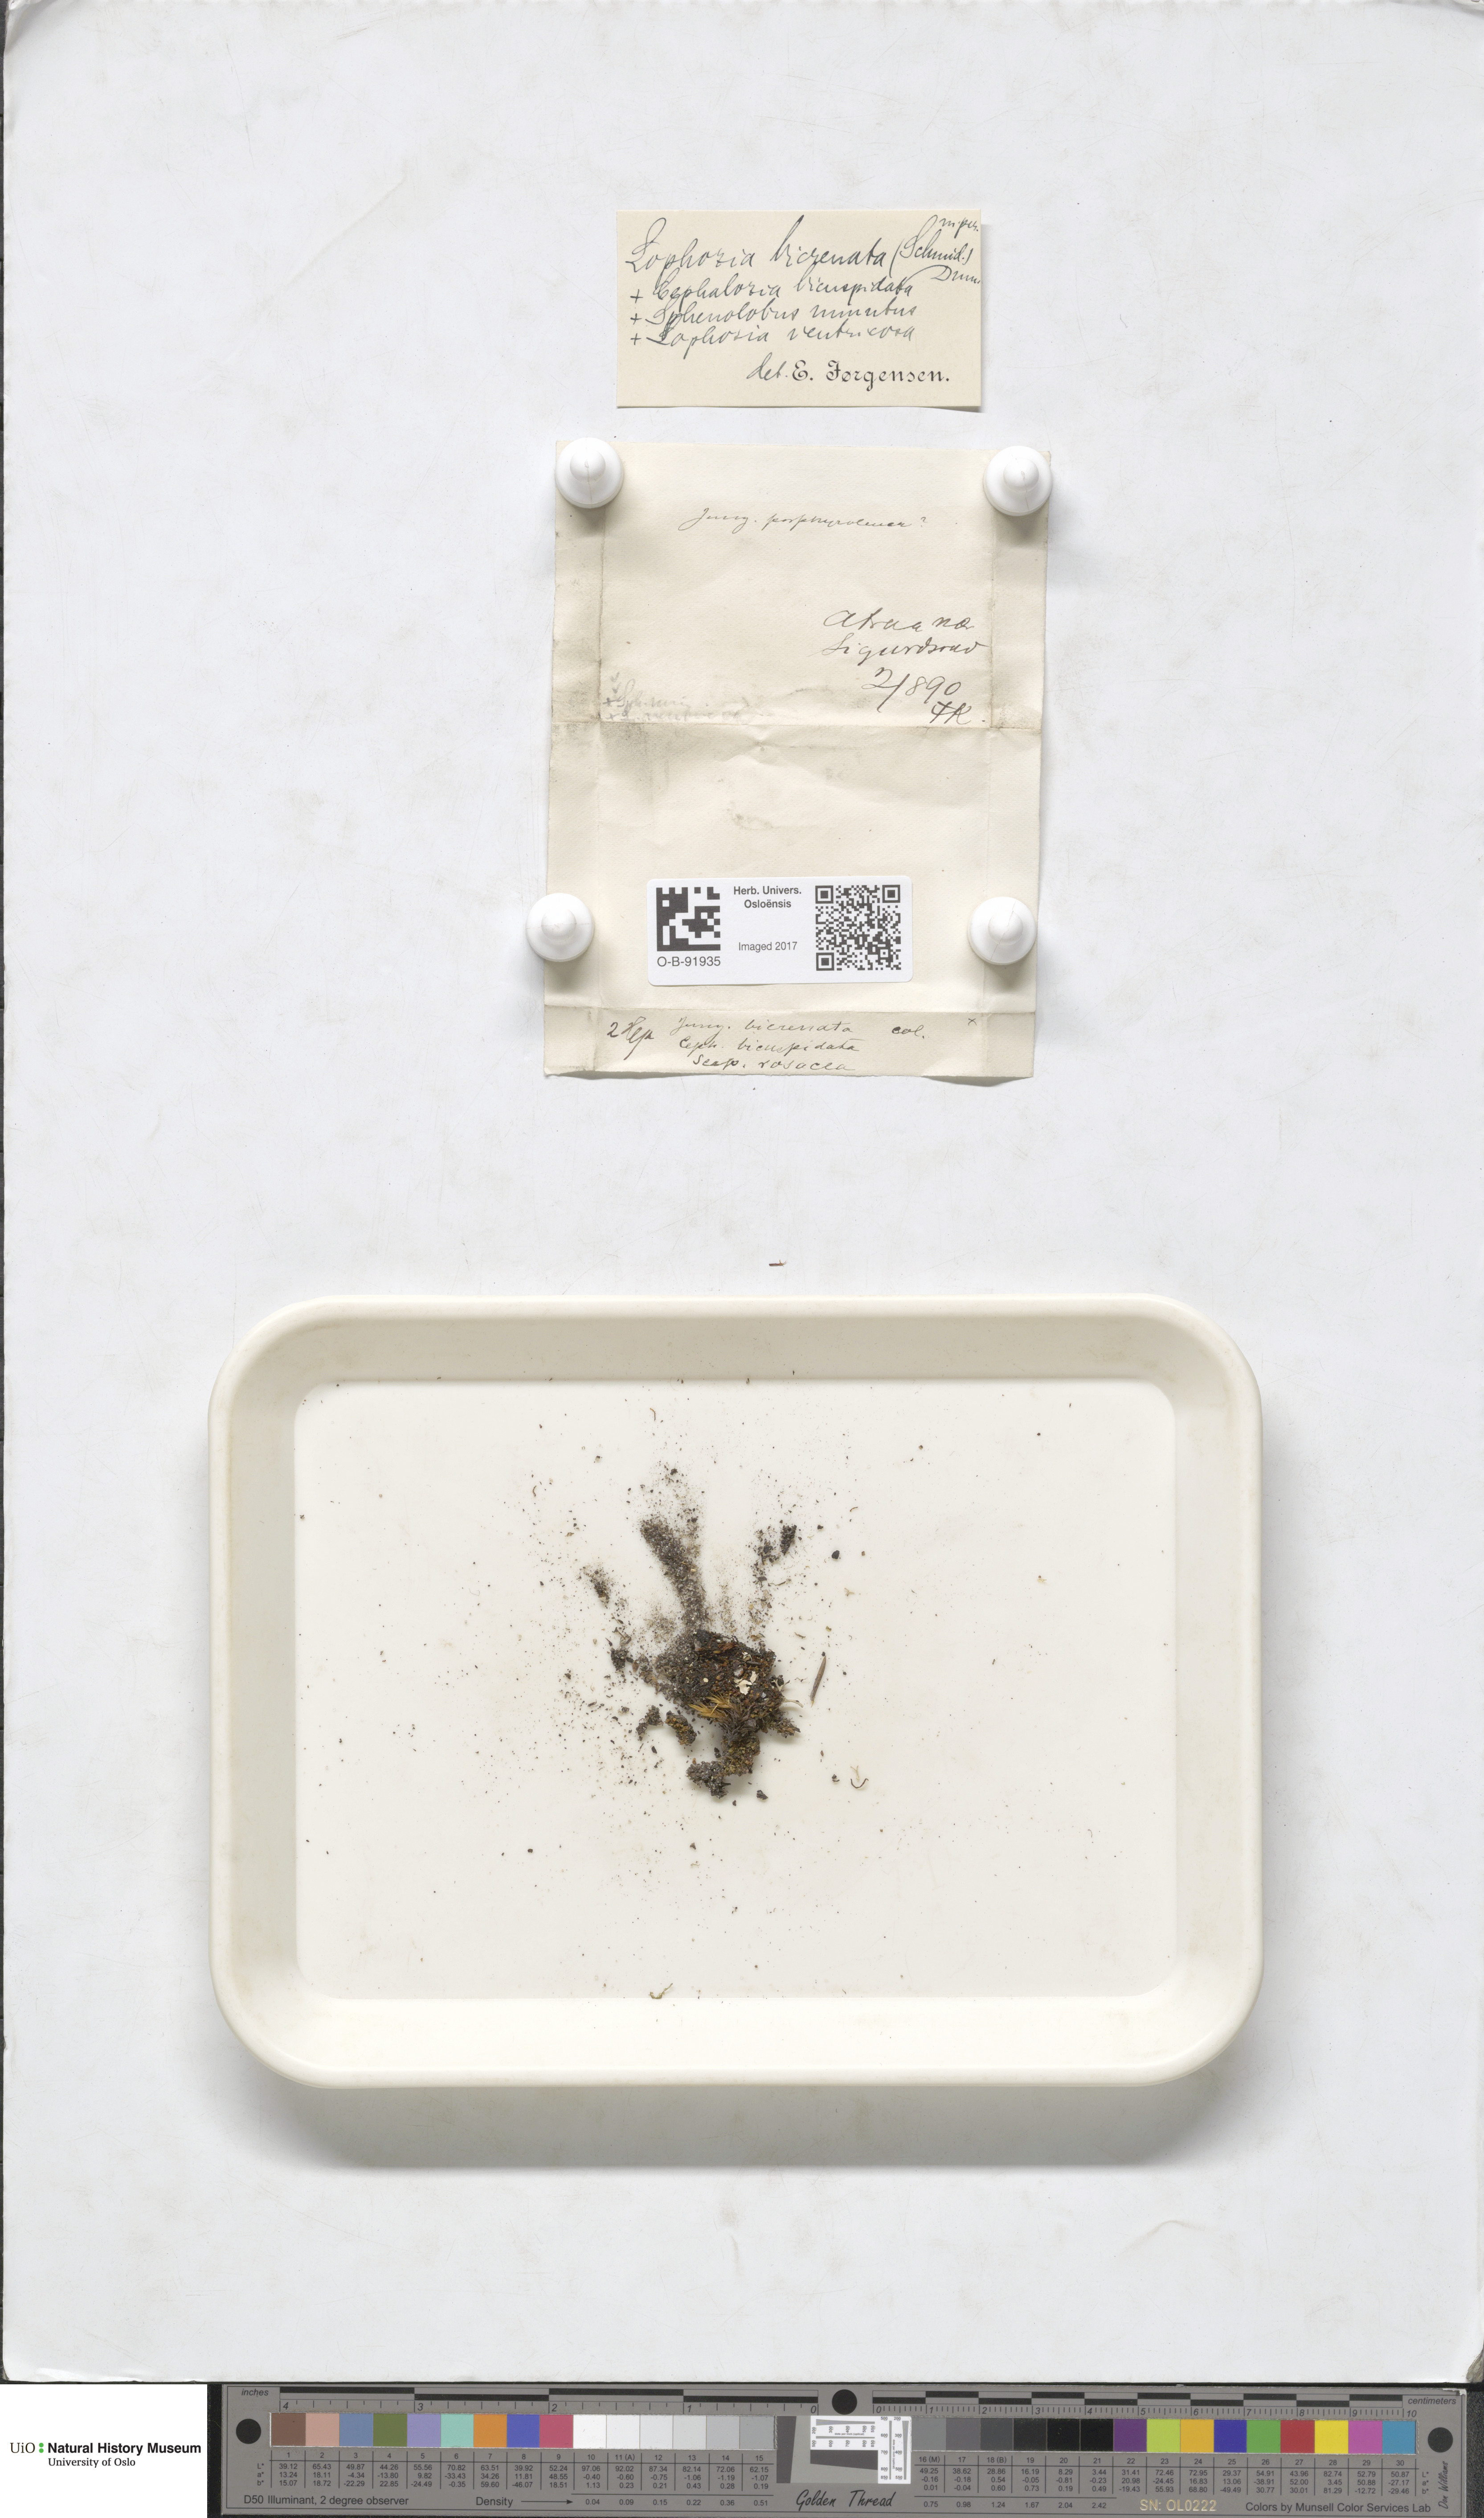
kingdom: Plantae
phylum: Marchantiophyta
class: Jungermanniopsida
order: Jungermanniales
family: Anastrophyllaceae
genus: Isopaches
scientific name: Isopaches bicrenatus
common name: Lesser notchwort
